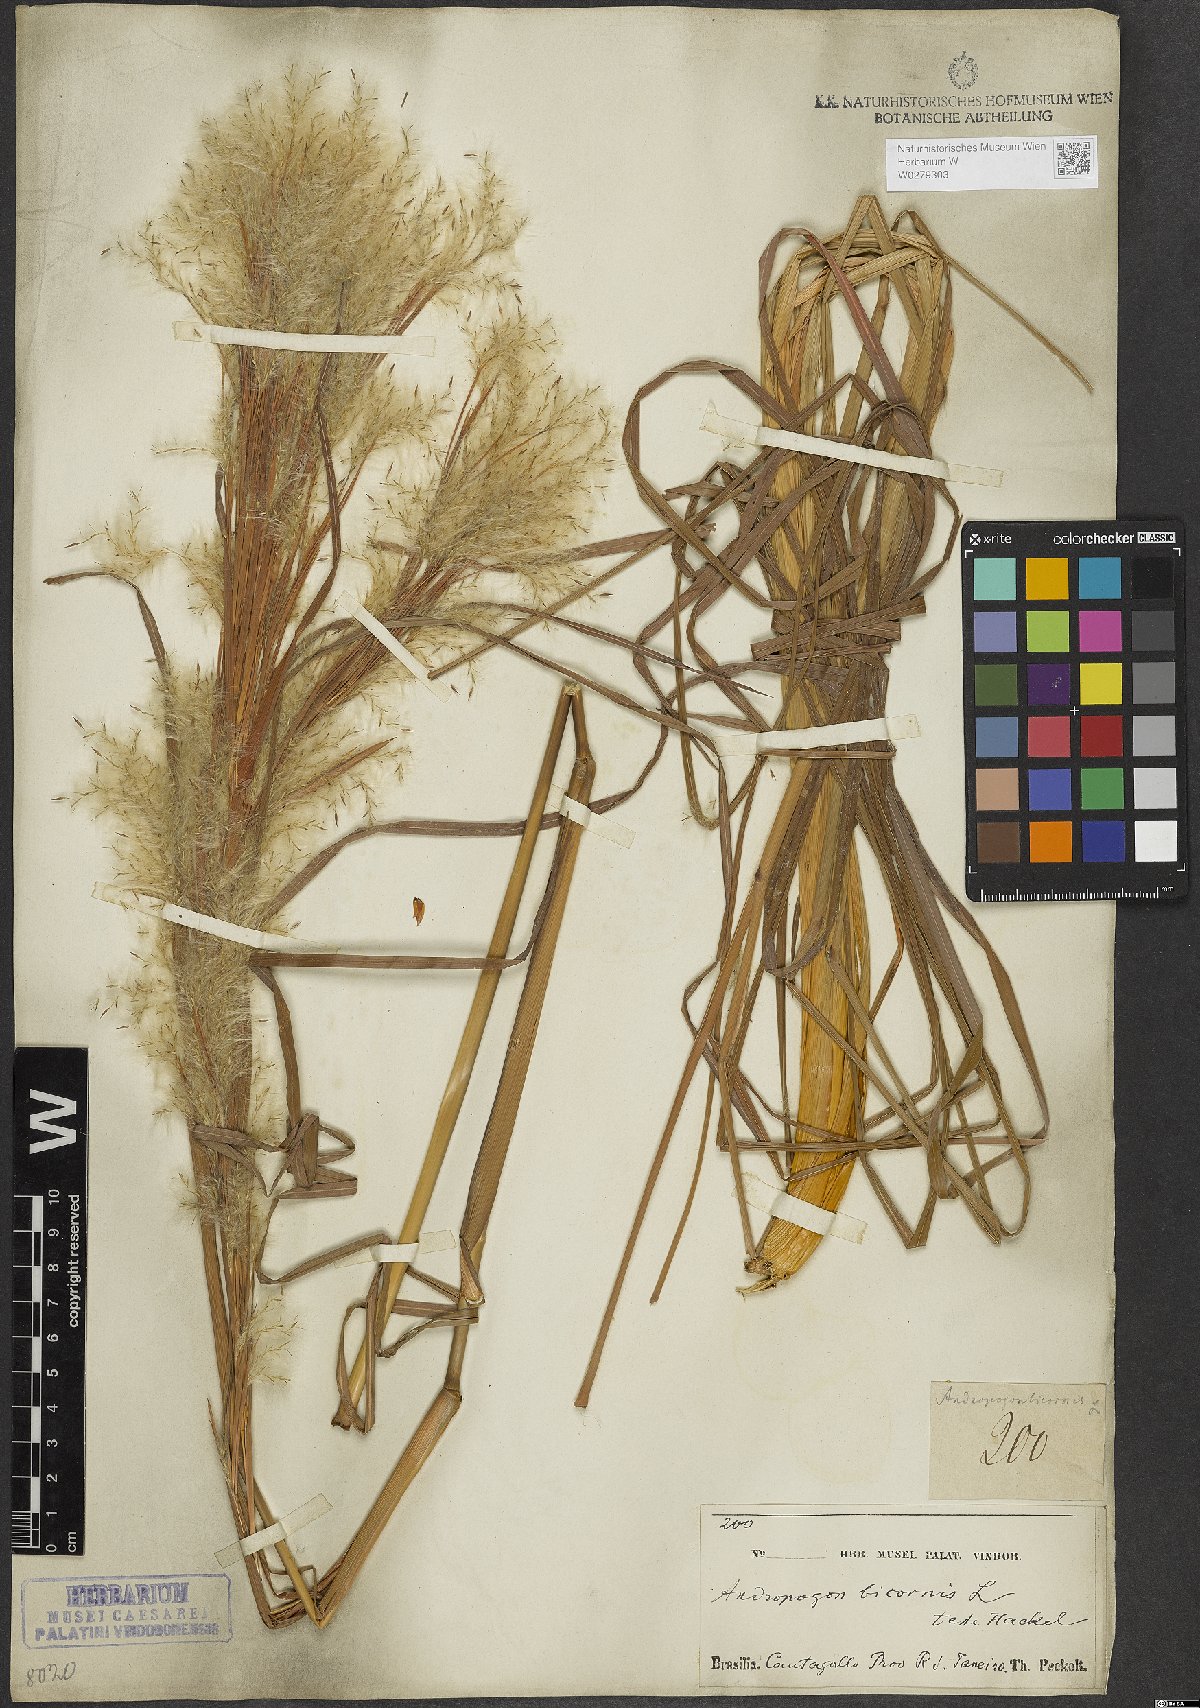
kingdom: Plantae
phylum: Tracheophyta
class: Liliopsida
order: Poales
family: Poaceae
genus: Andropogon
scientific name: Andropogon bicornis
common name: West indian foxtail grass
